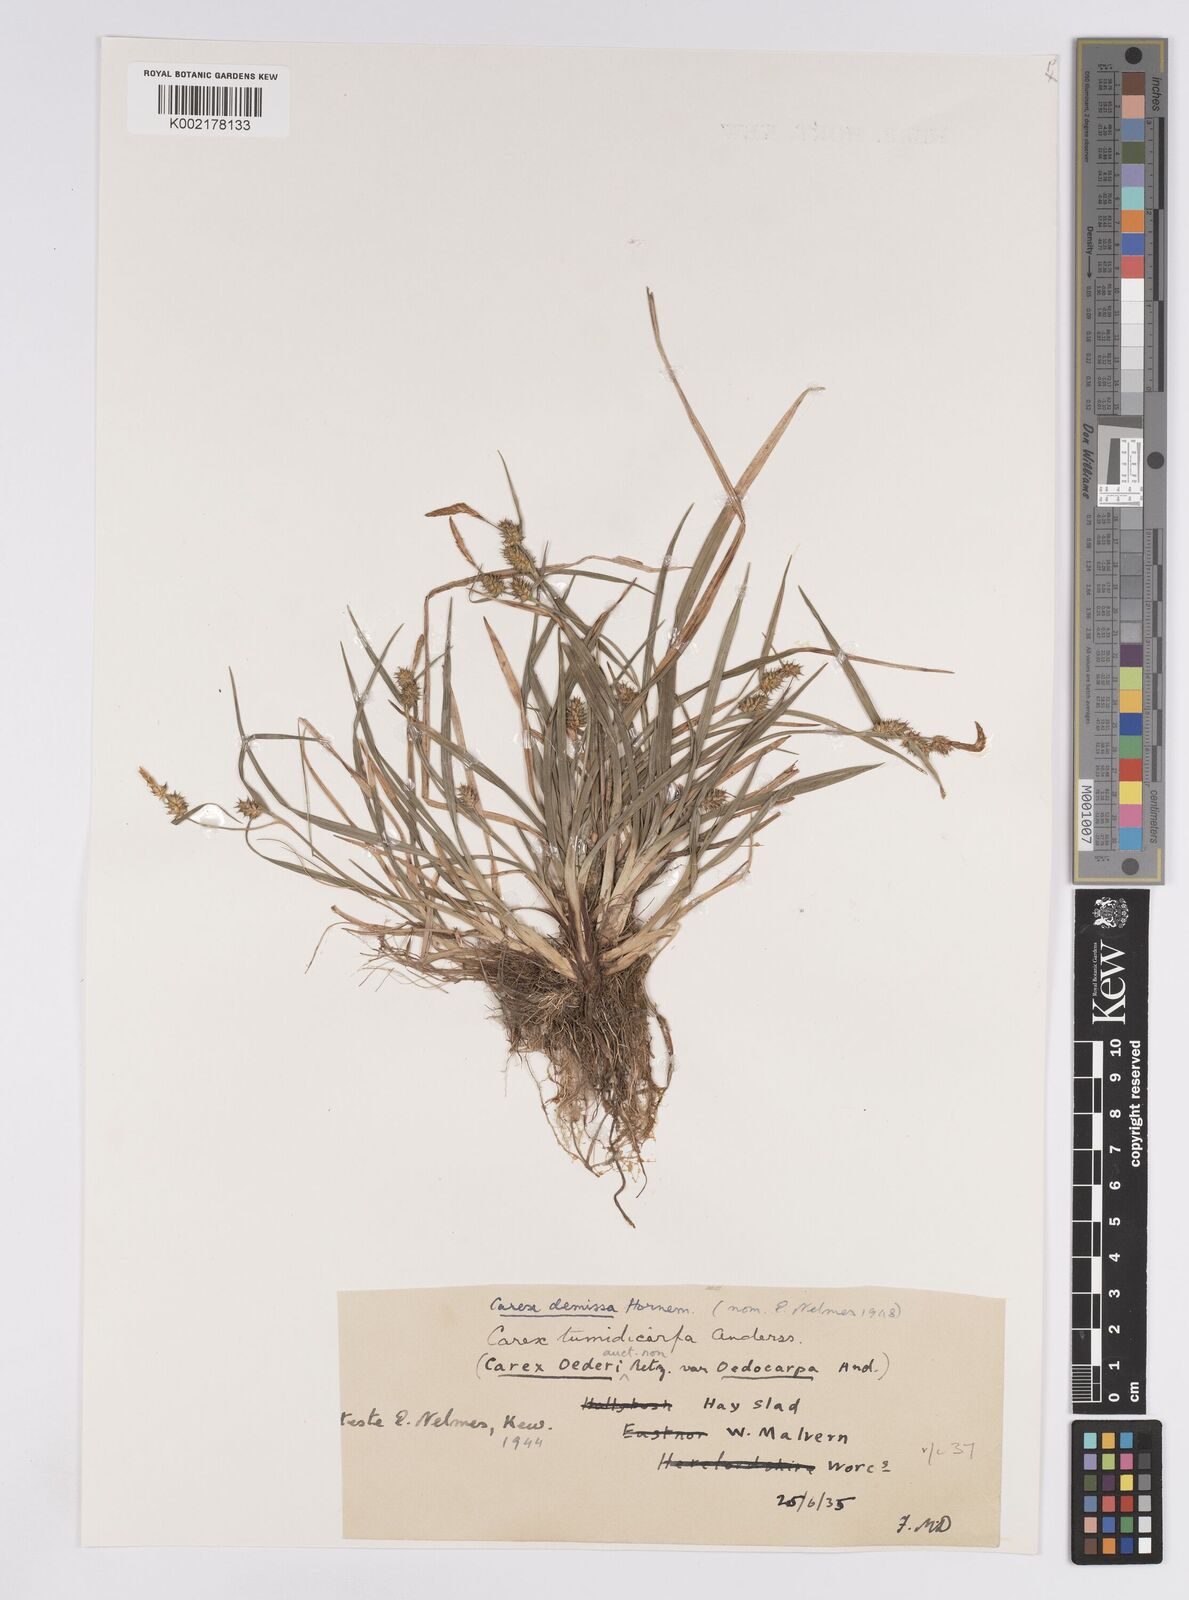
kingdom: Plantae
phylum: Tracheophyta
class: Liliopsida
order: Poales
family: Cyperaceae
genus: Carex
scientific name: Carex demissa
